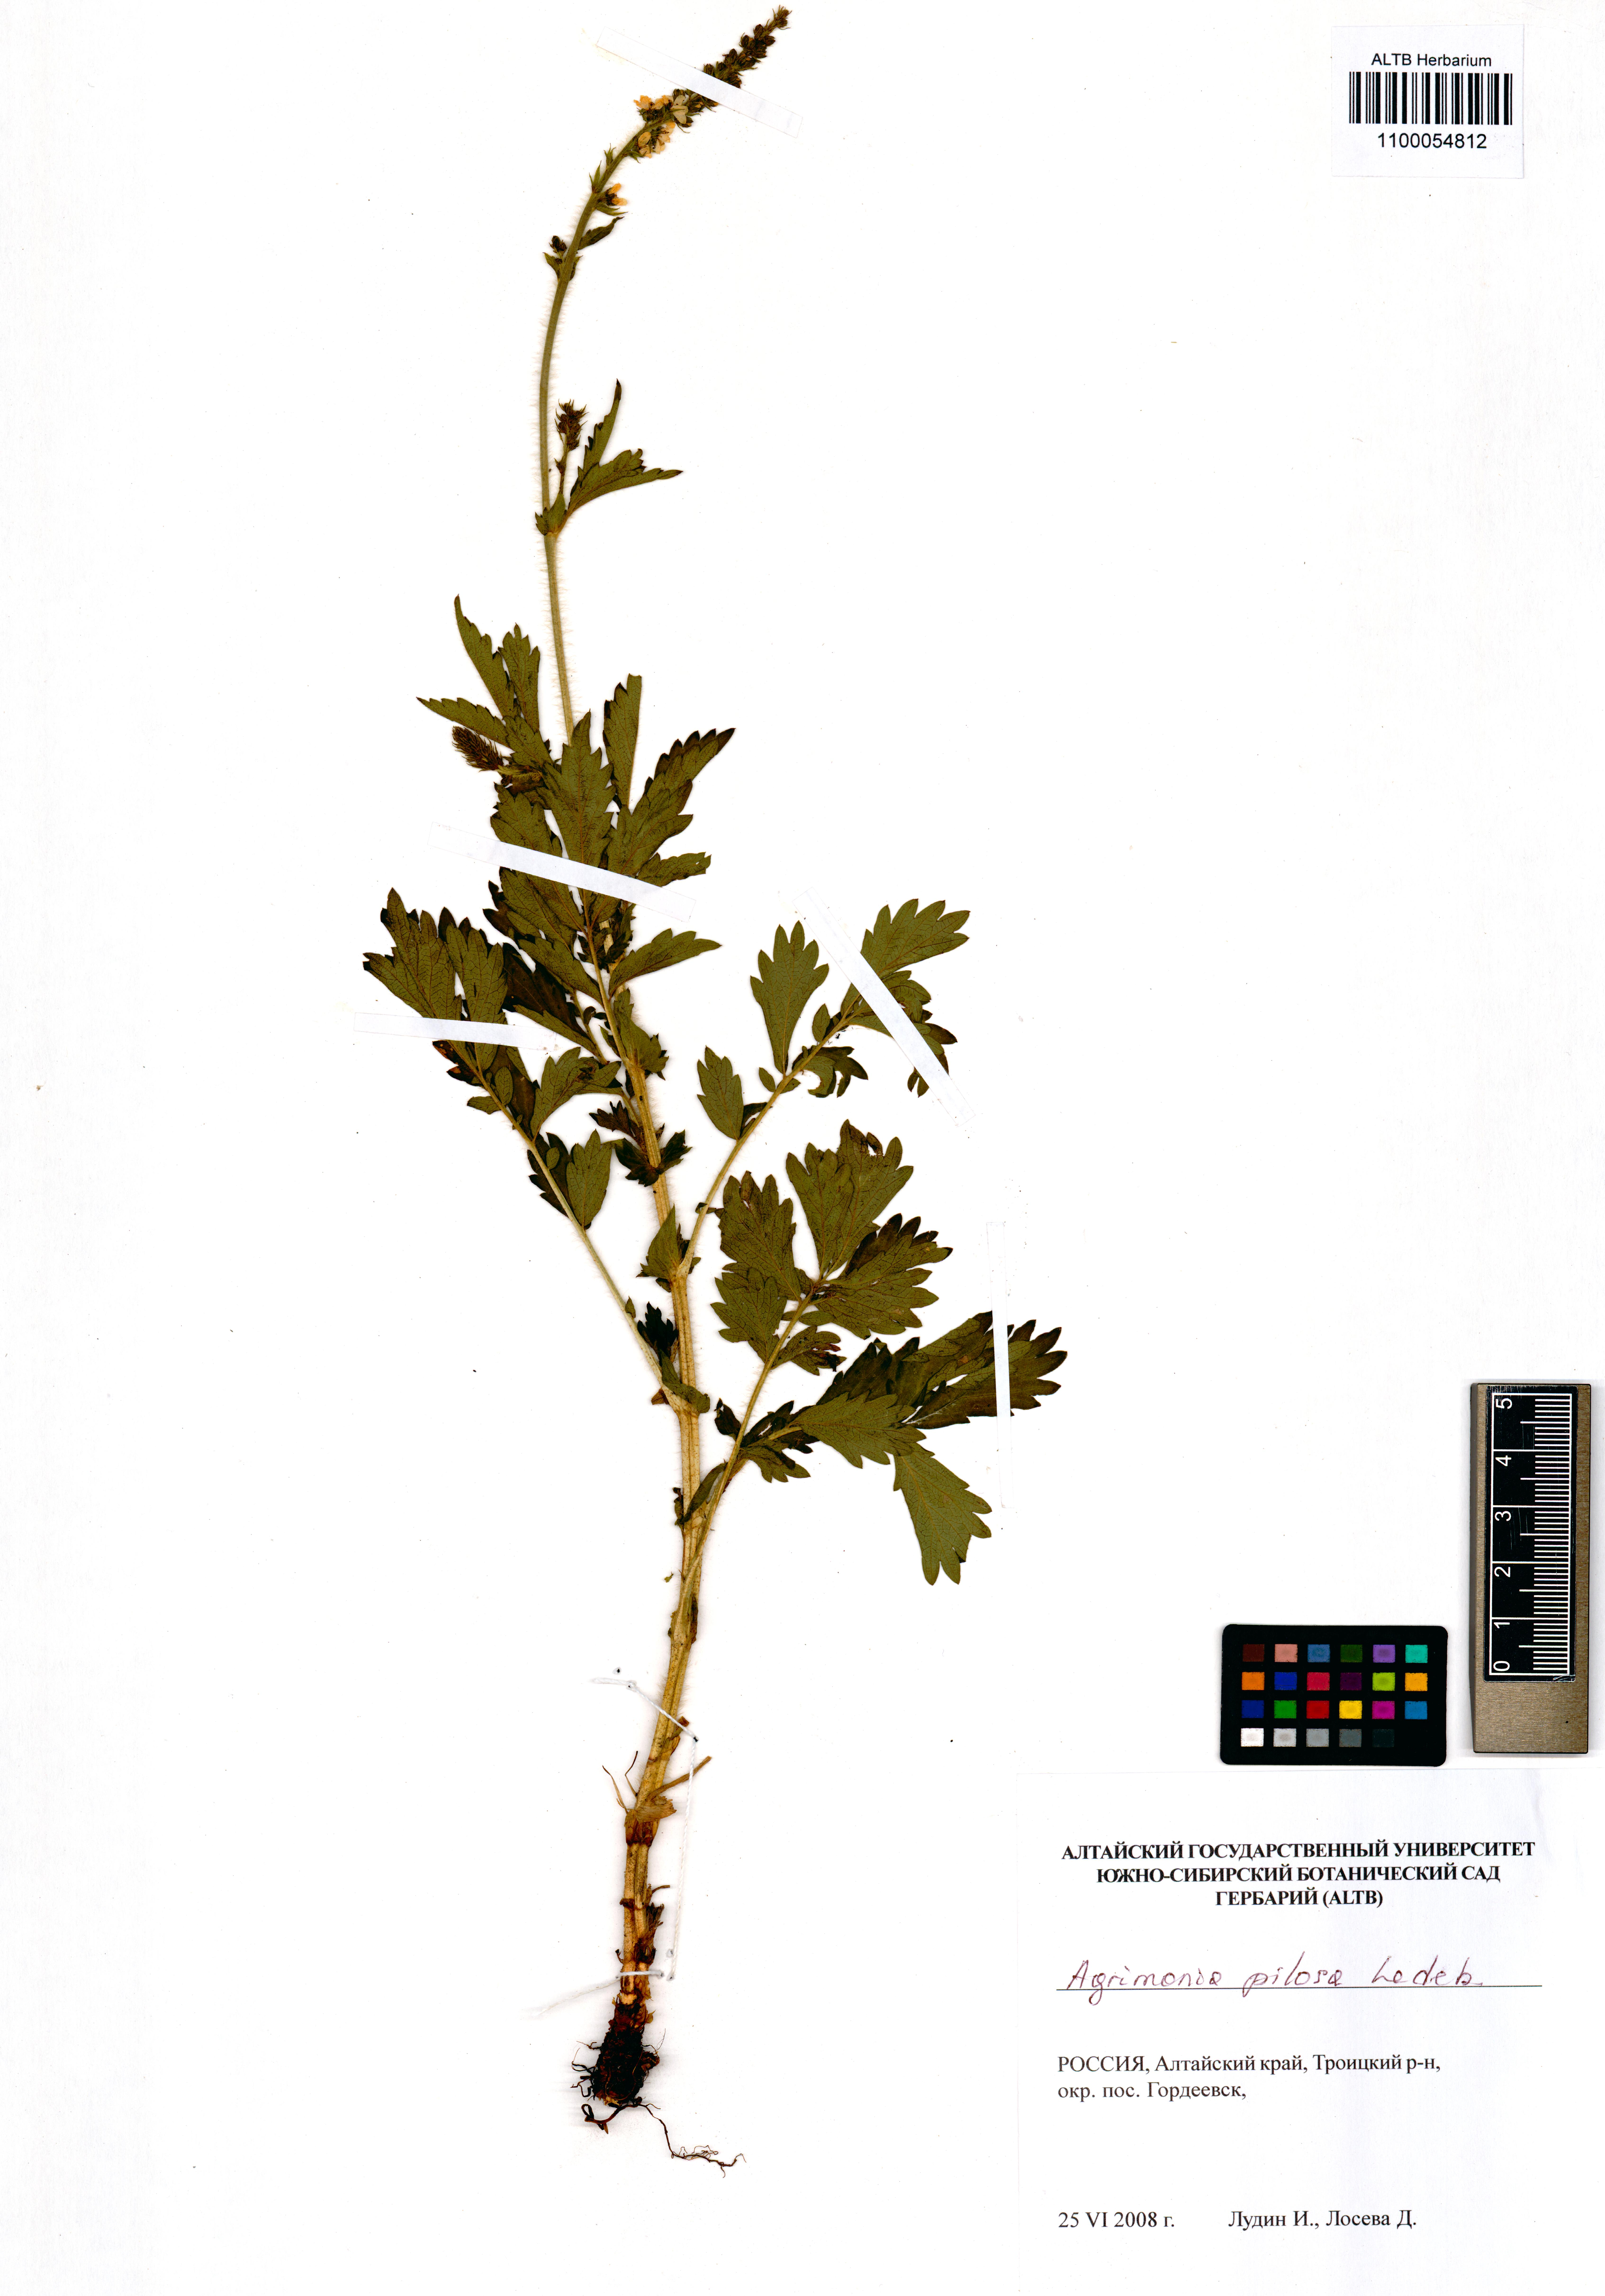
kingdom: Plantae
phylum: Tracheophyta
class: Magnoliopsida
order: Rosales
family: Rosaceae
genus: Agrimonia
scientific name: Agrimonia pilosa
